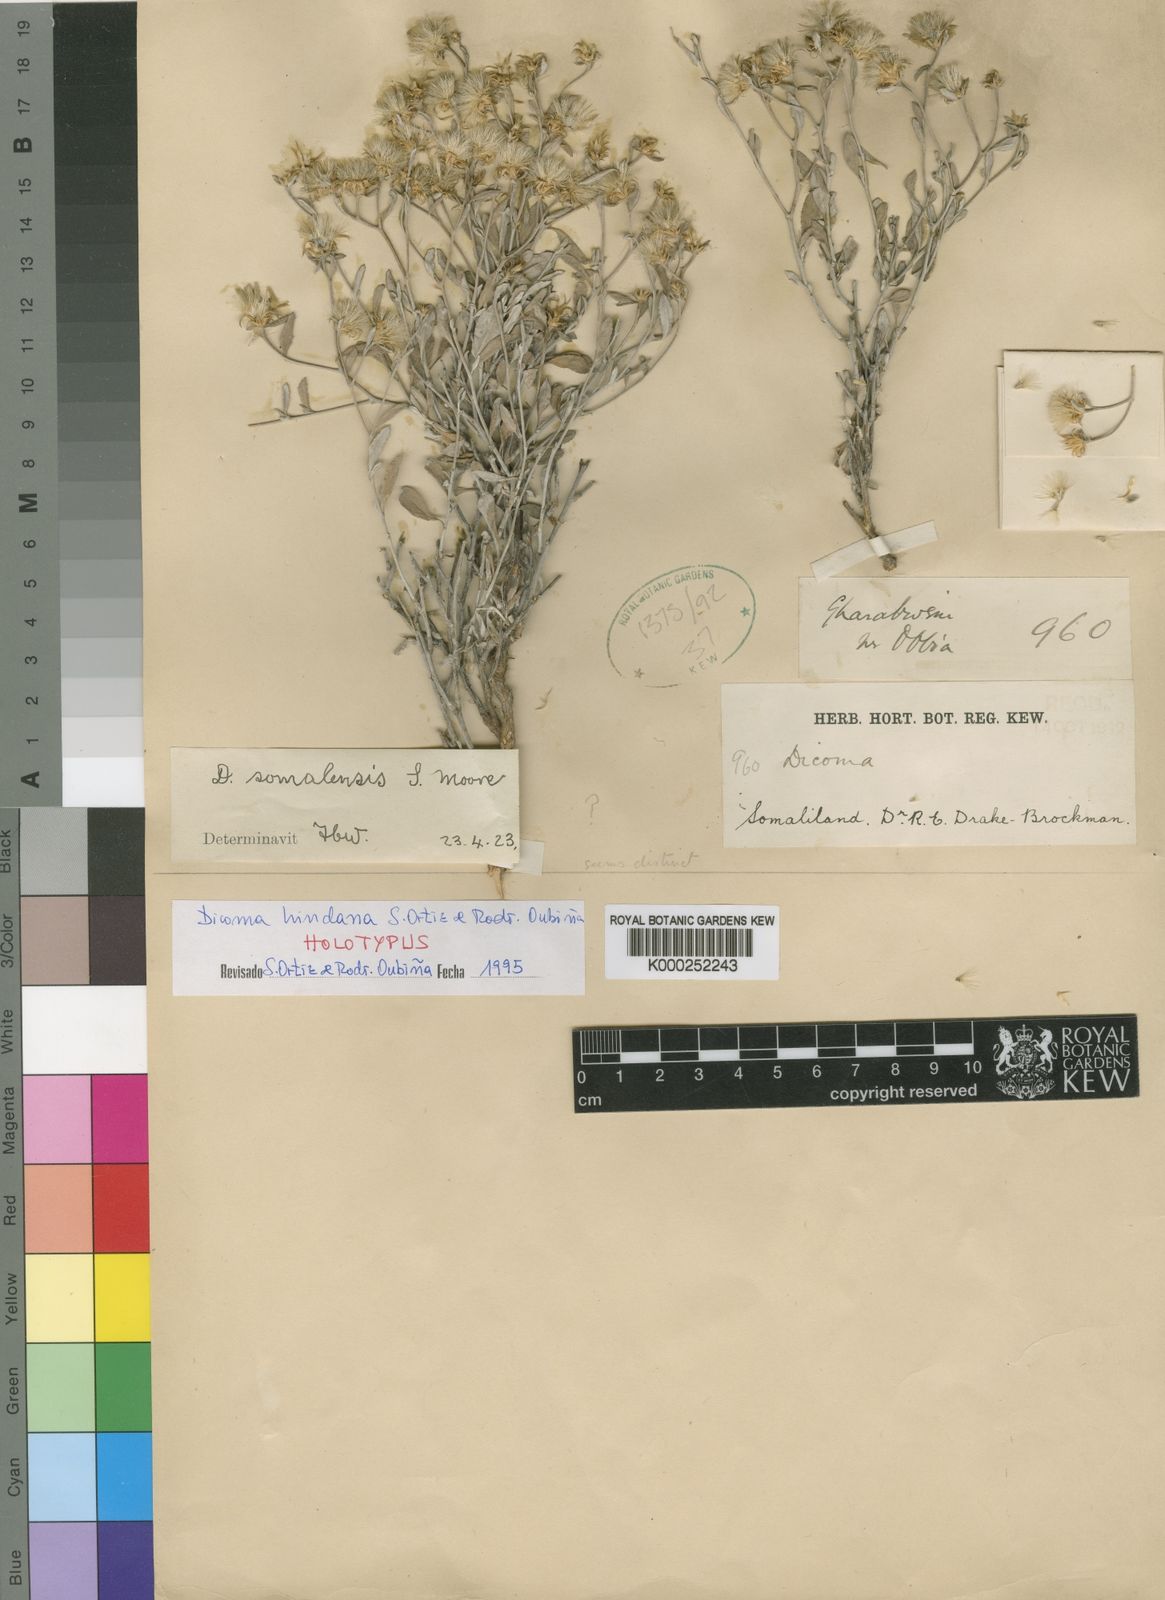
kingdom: Plantae
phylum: Tracheophyta
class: Magnoliopsida
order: Asterales
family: Asteraceae
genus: Dicoma
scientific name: Dicoma
